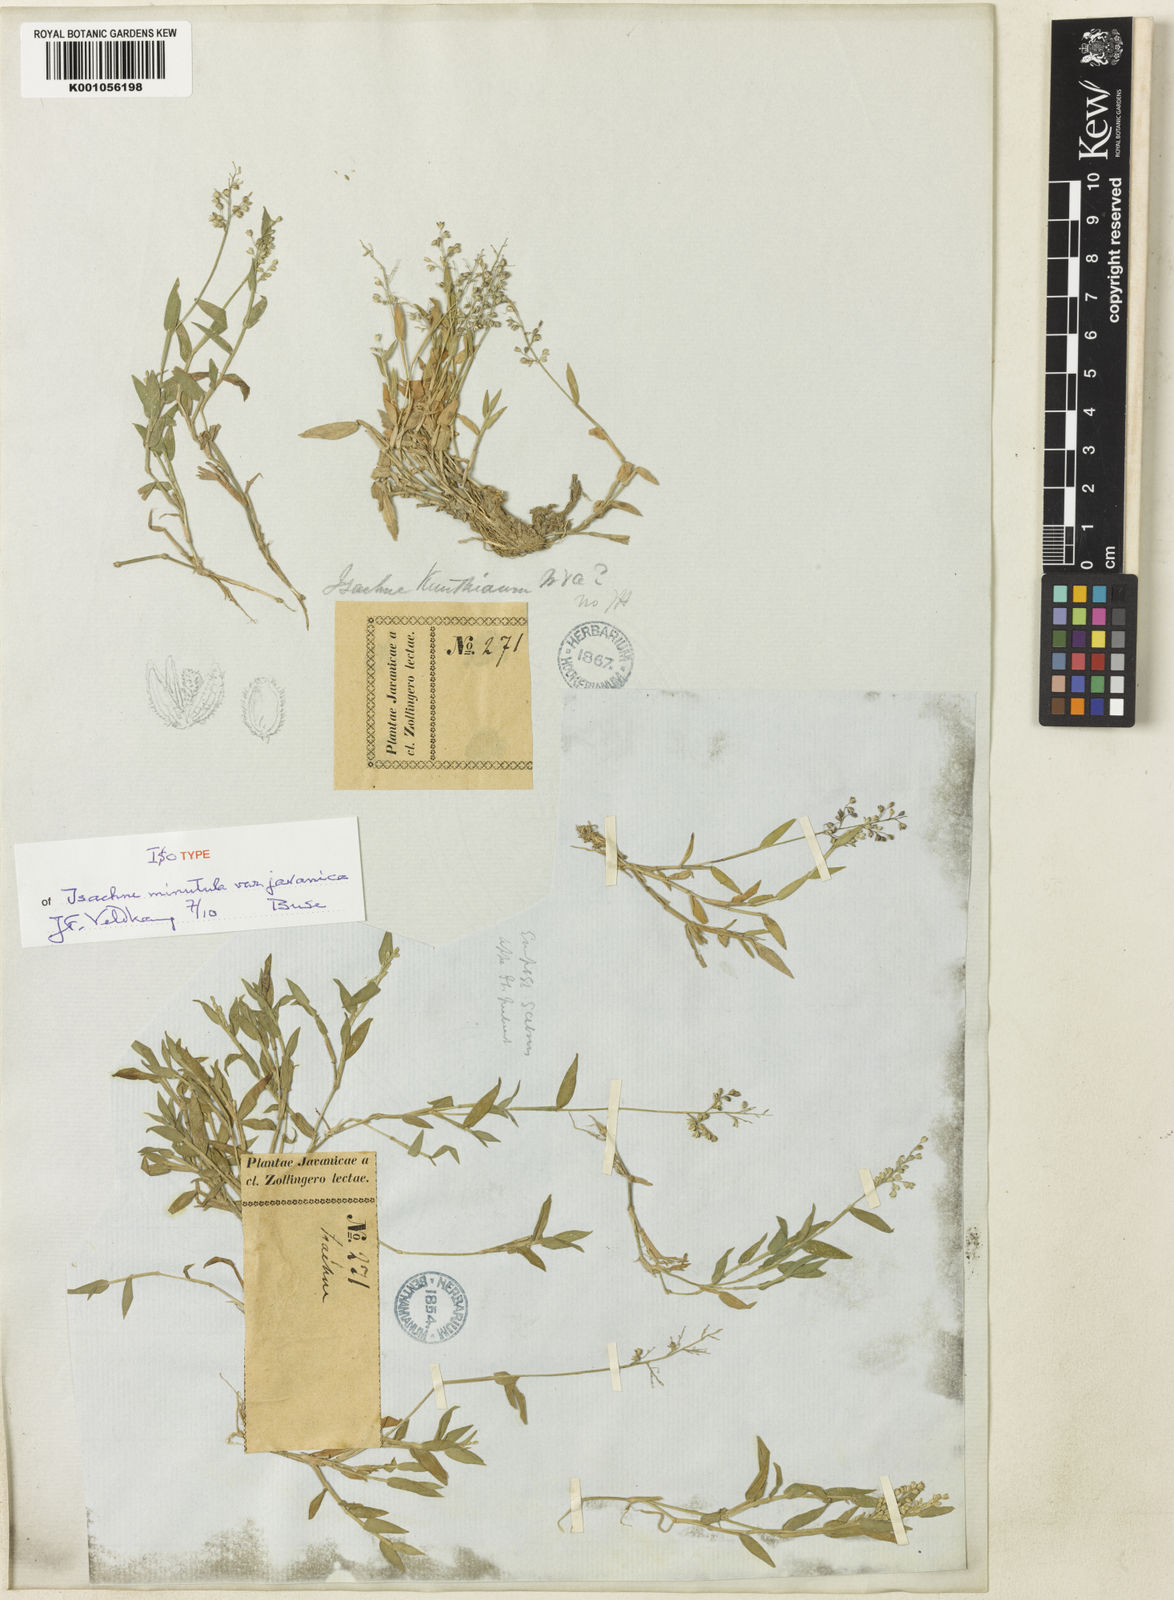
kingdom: Plantae
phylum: Tracheophyta
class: Liliopsida
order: Poales
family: Poaceae
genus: Isachne
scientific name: Isachne minutula
